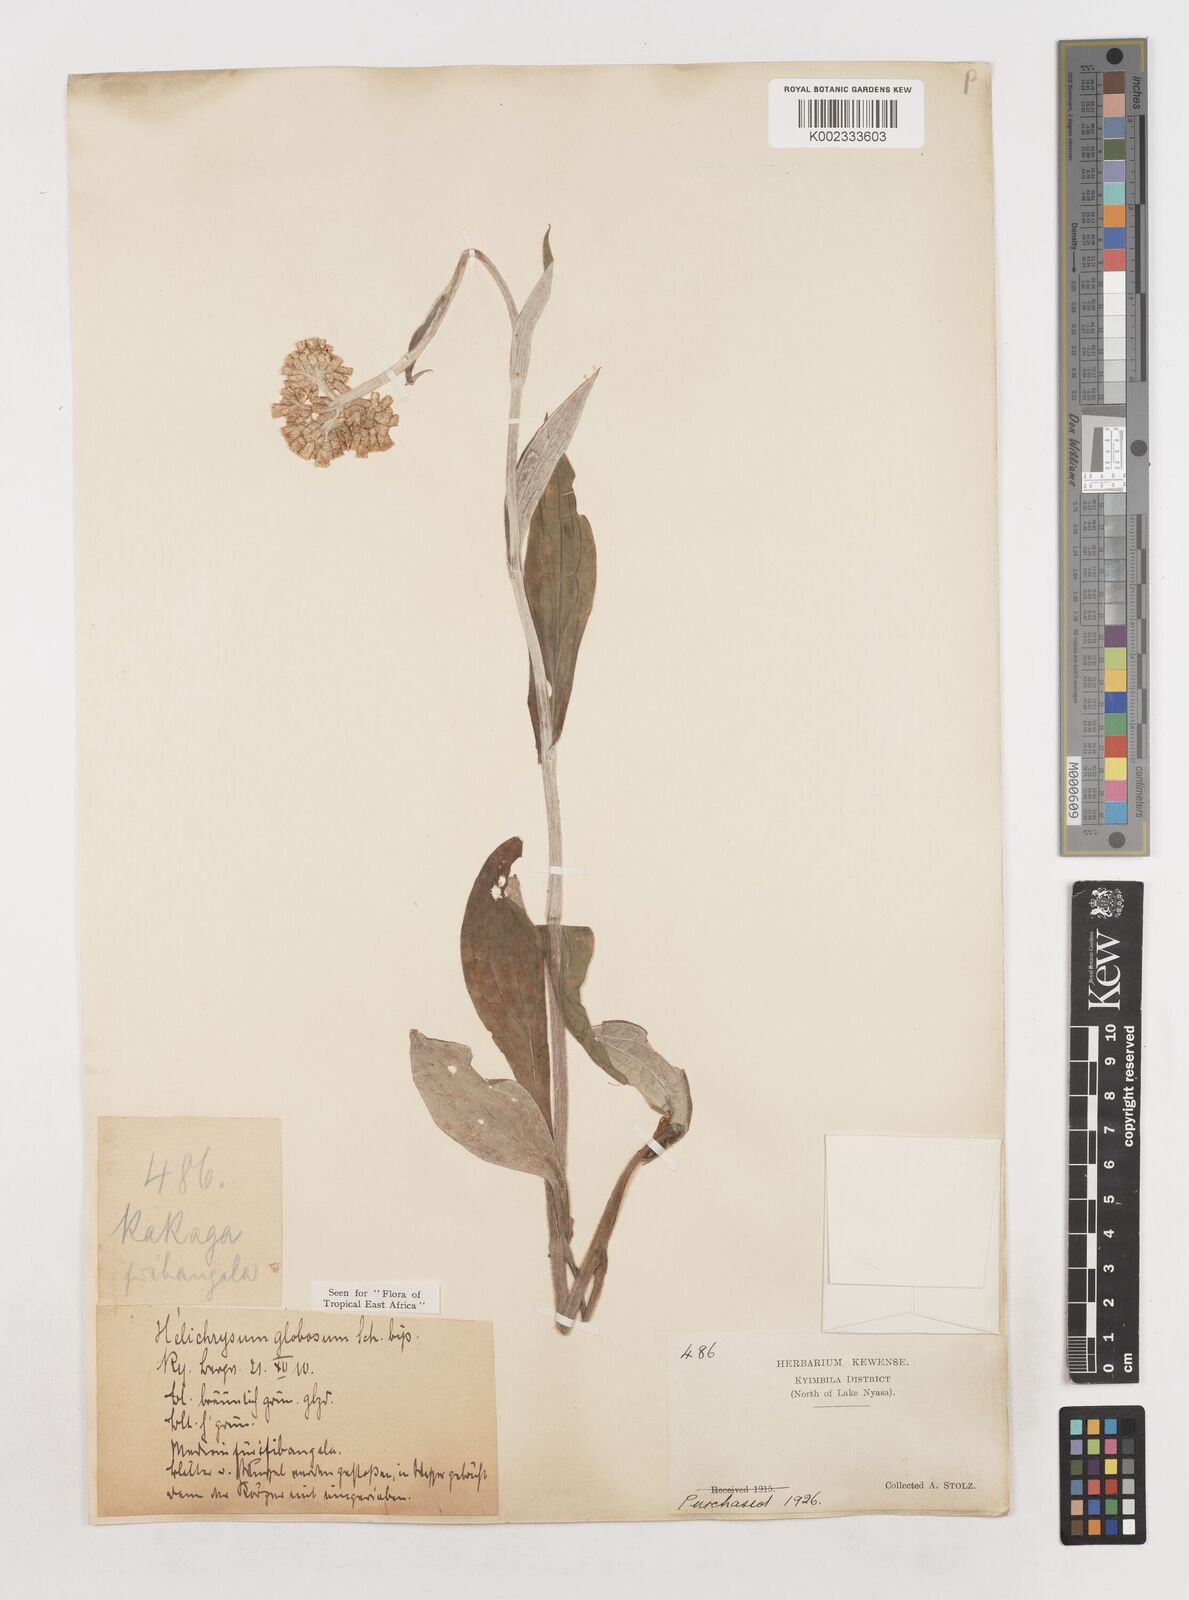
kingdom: Plantae
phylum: Tracheophyta
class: Magnoliopsida
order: Asterales
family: Asteraceae
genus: Helichrysum
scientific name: Helichrysum globosum
